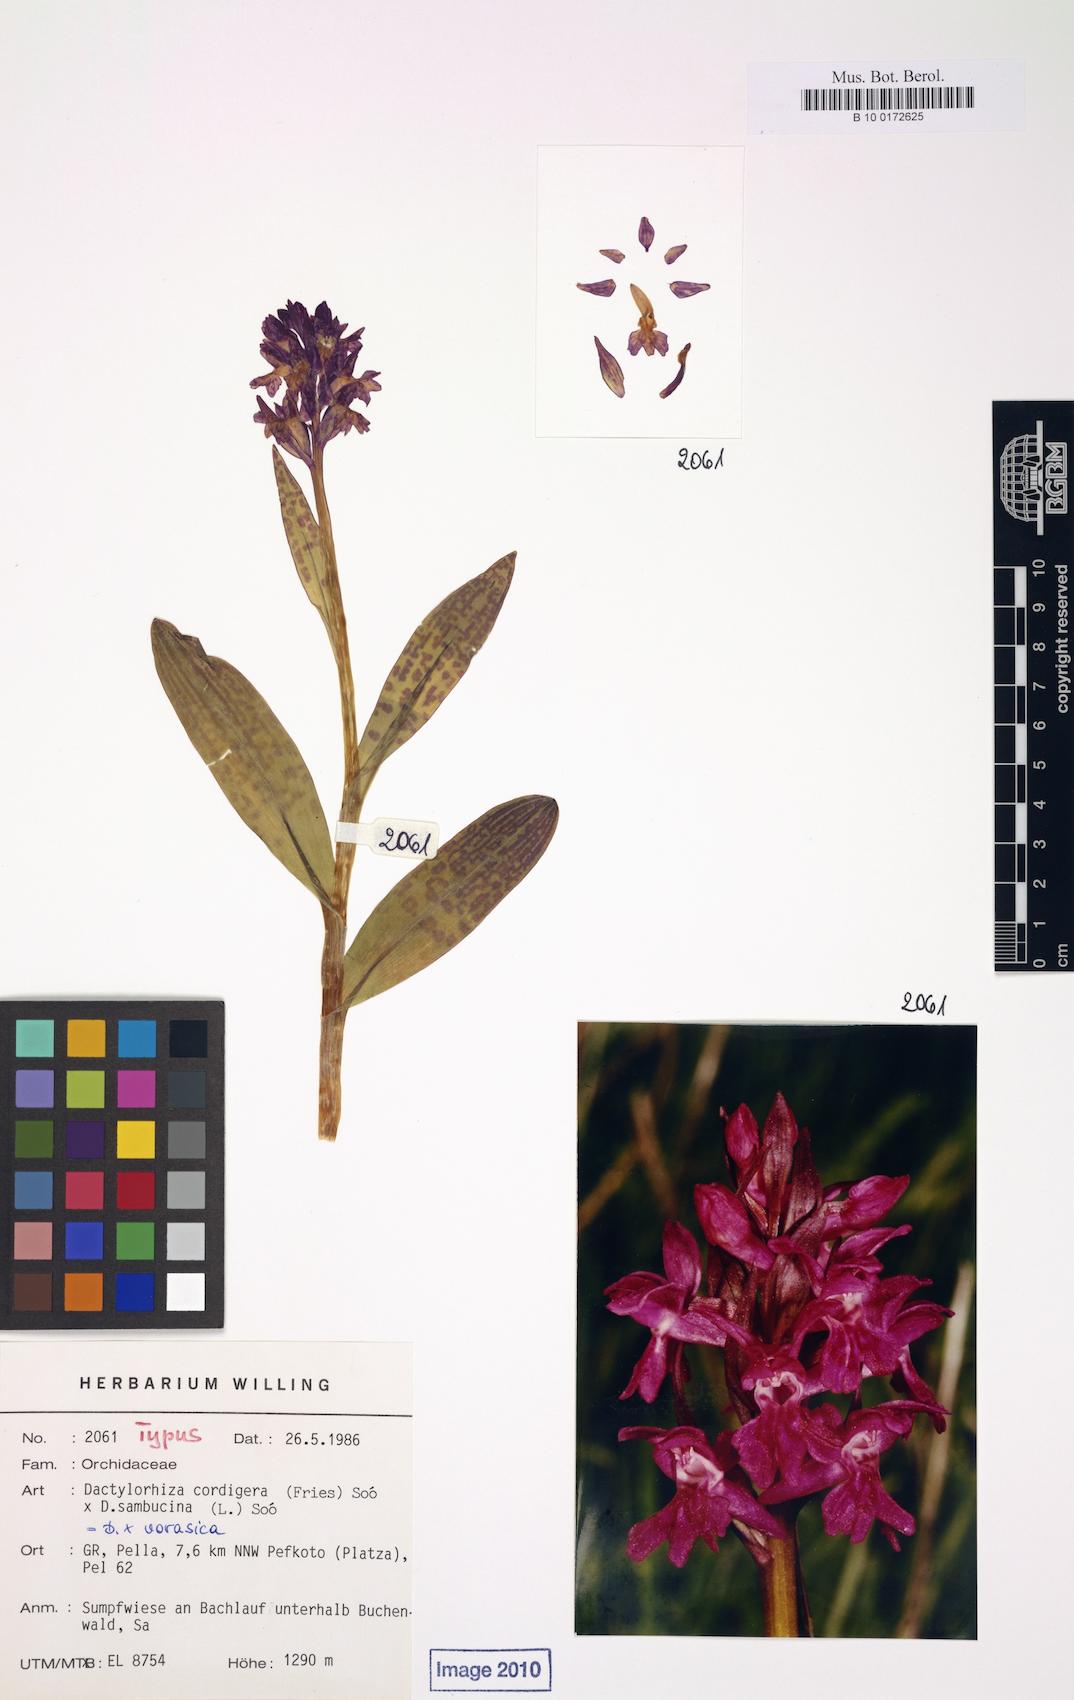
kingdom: Plantae
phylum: Tracheophyta
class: Liliopsida
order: Asparagales
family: Orchidaceae
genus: Dactylorhiza
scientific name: Dactylorhiza
